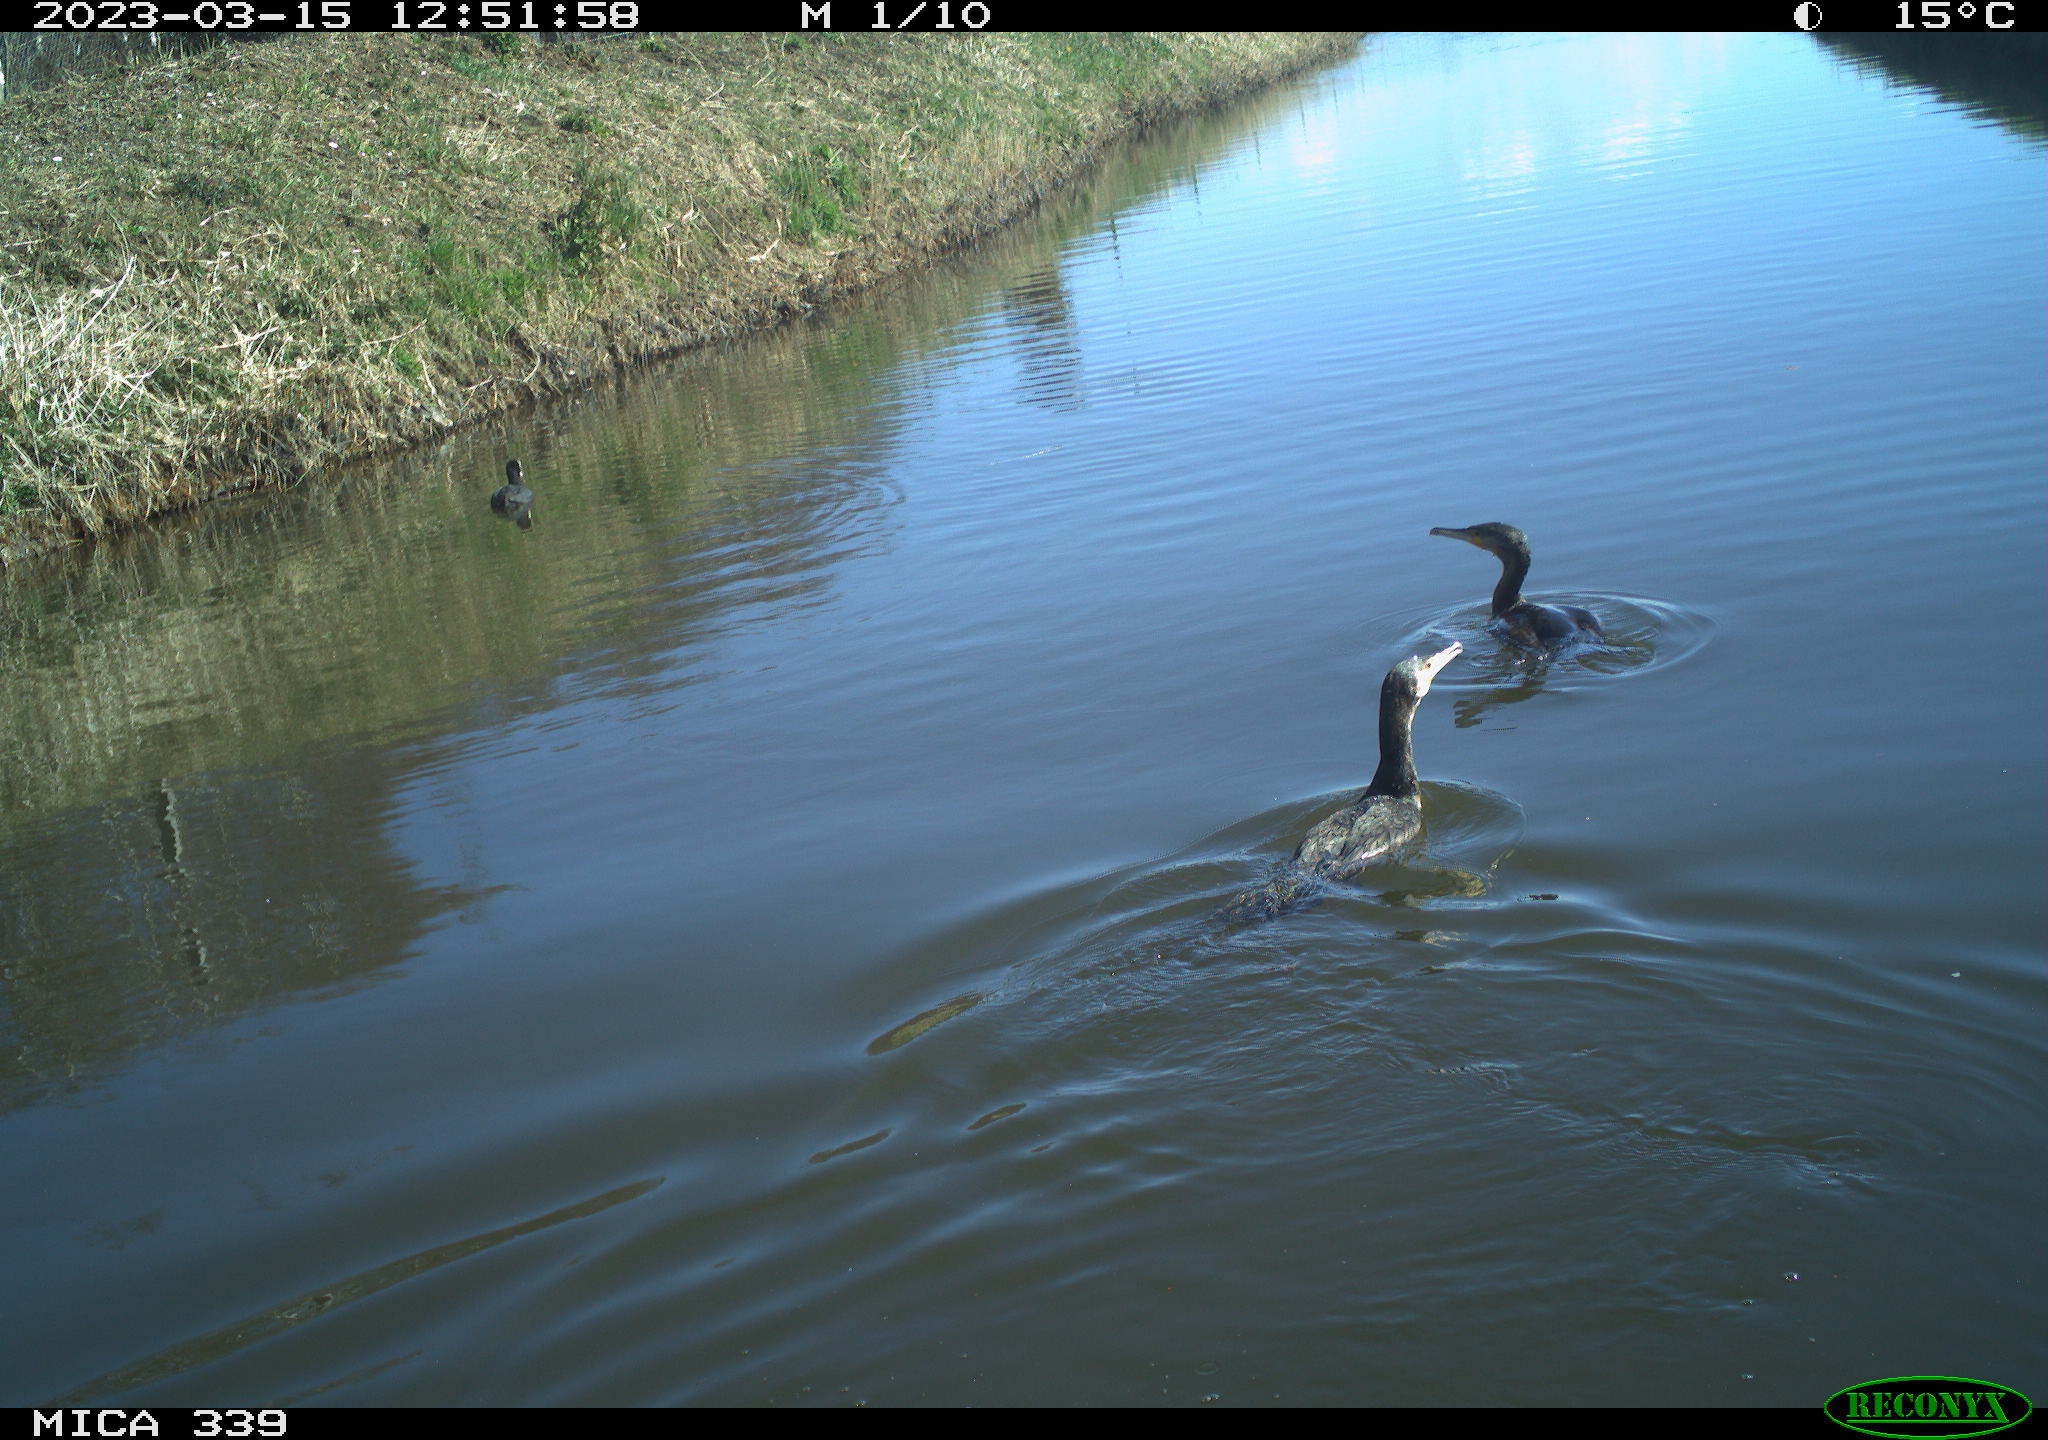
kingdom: Animalia
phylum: Chordata
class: Aves
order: Suliformes
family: Phalacrocoracidae
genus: Phalacrocorax
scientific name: Phalacrocorax carbo
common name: Great cormorant
